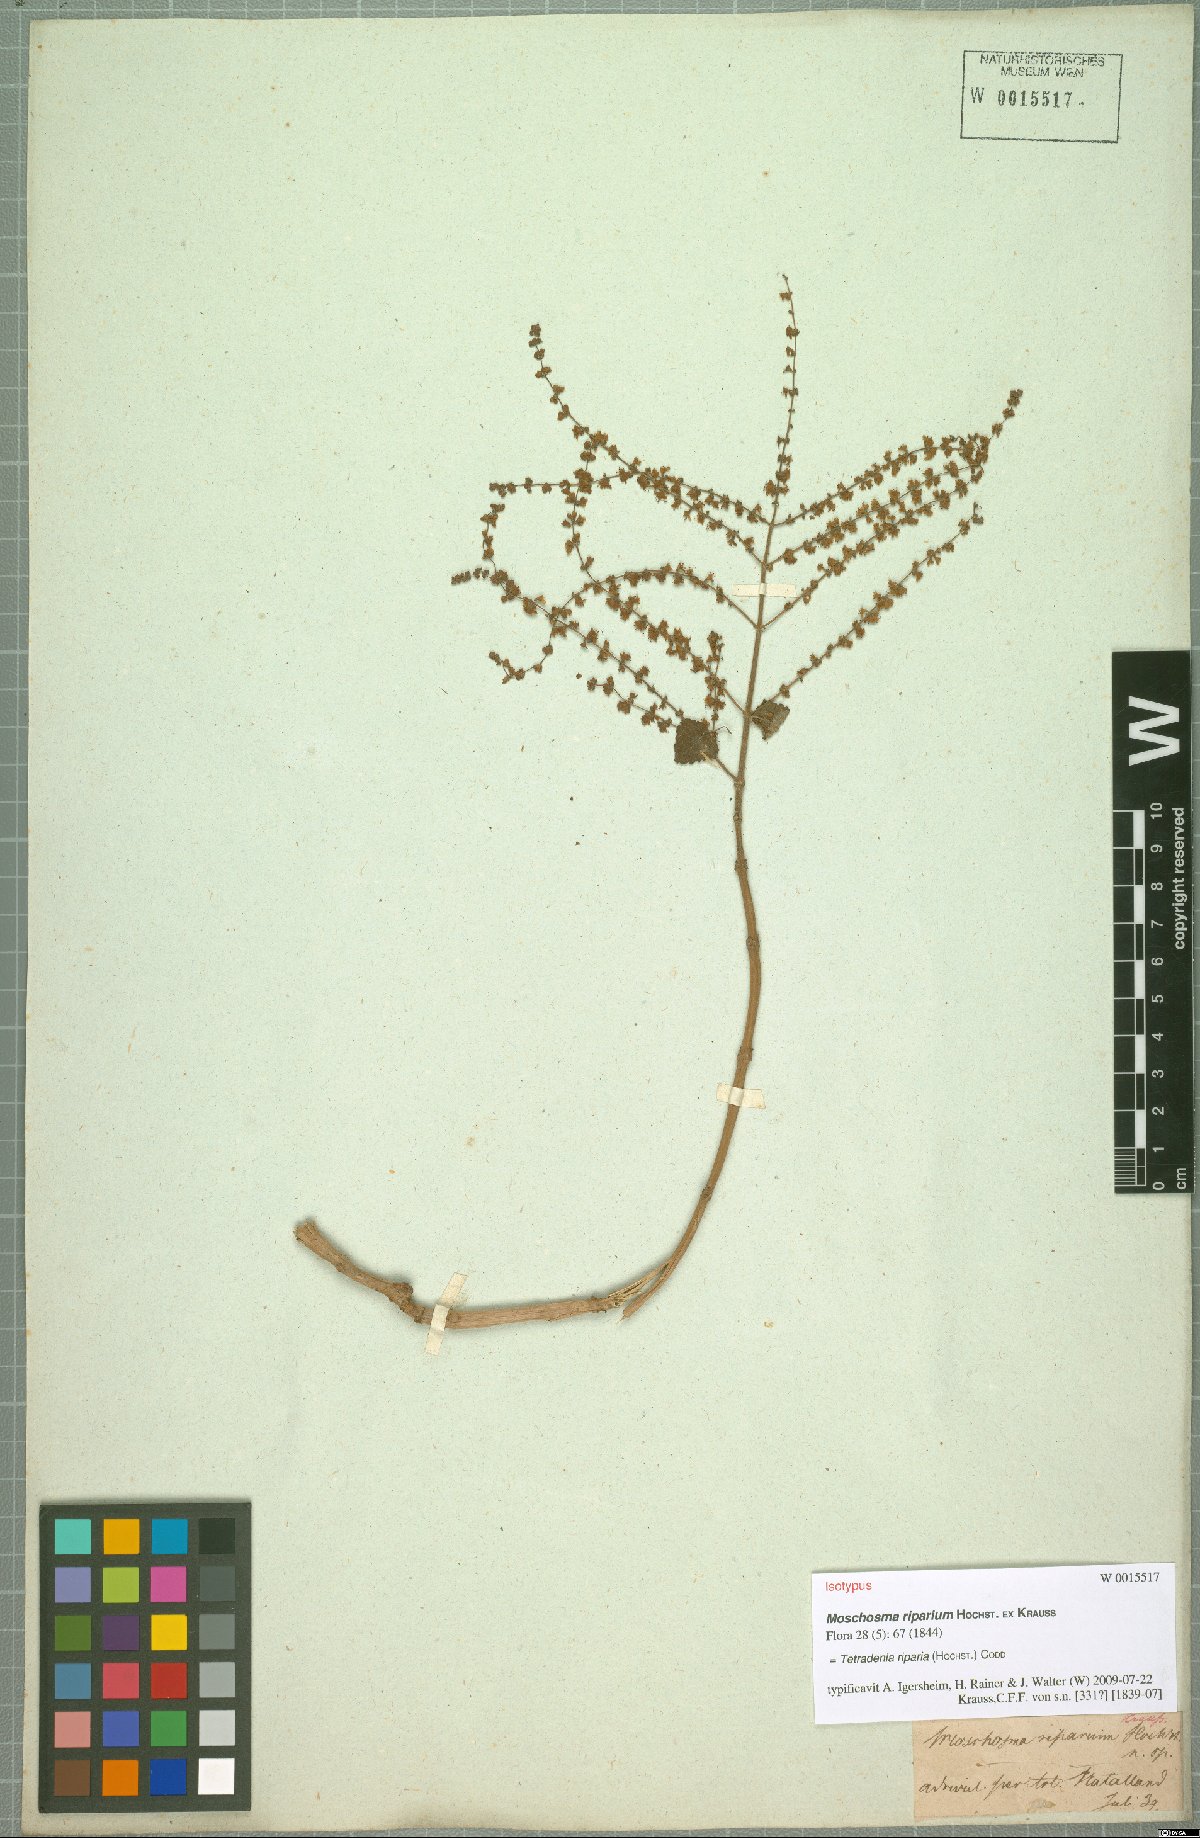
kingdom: Plantae
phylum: Tracheophyta
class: Magnoliopsida
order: Lamiales
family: Lamiaceae
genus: Tetradenia
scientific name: Tetradenia riparia
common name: Gingerbush
